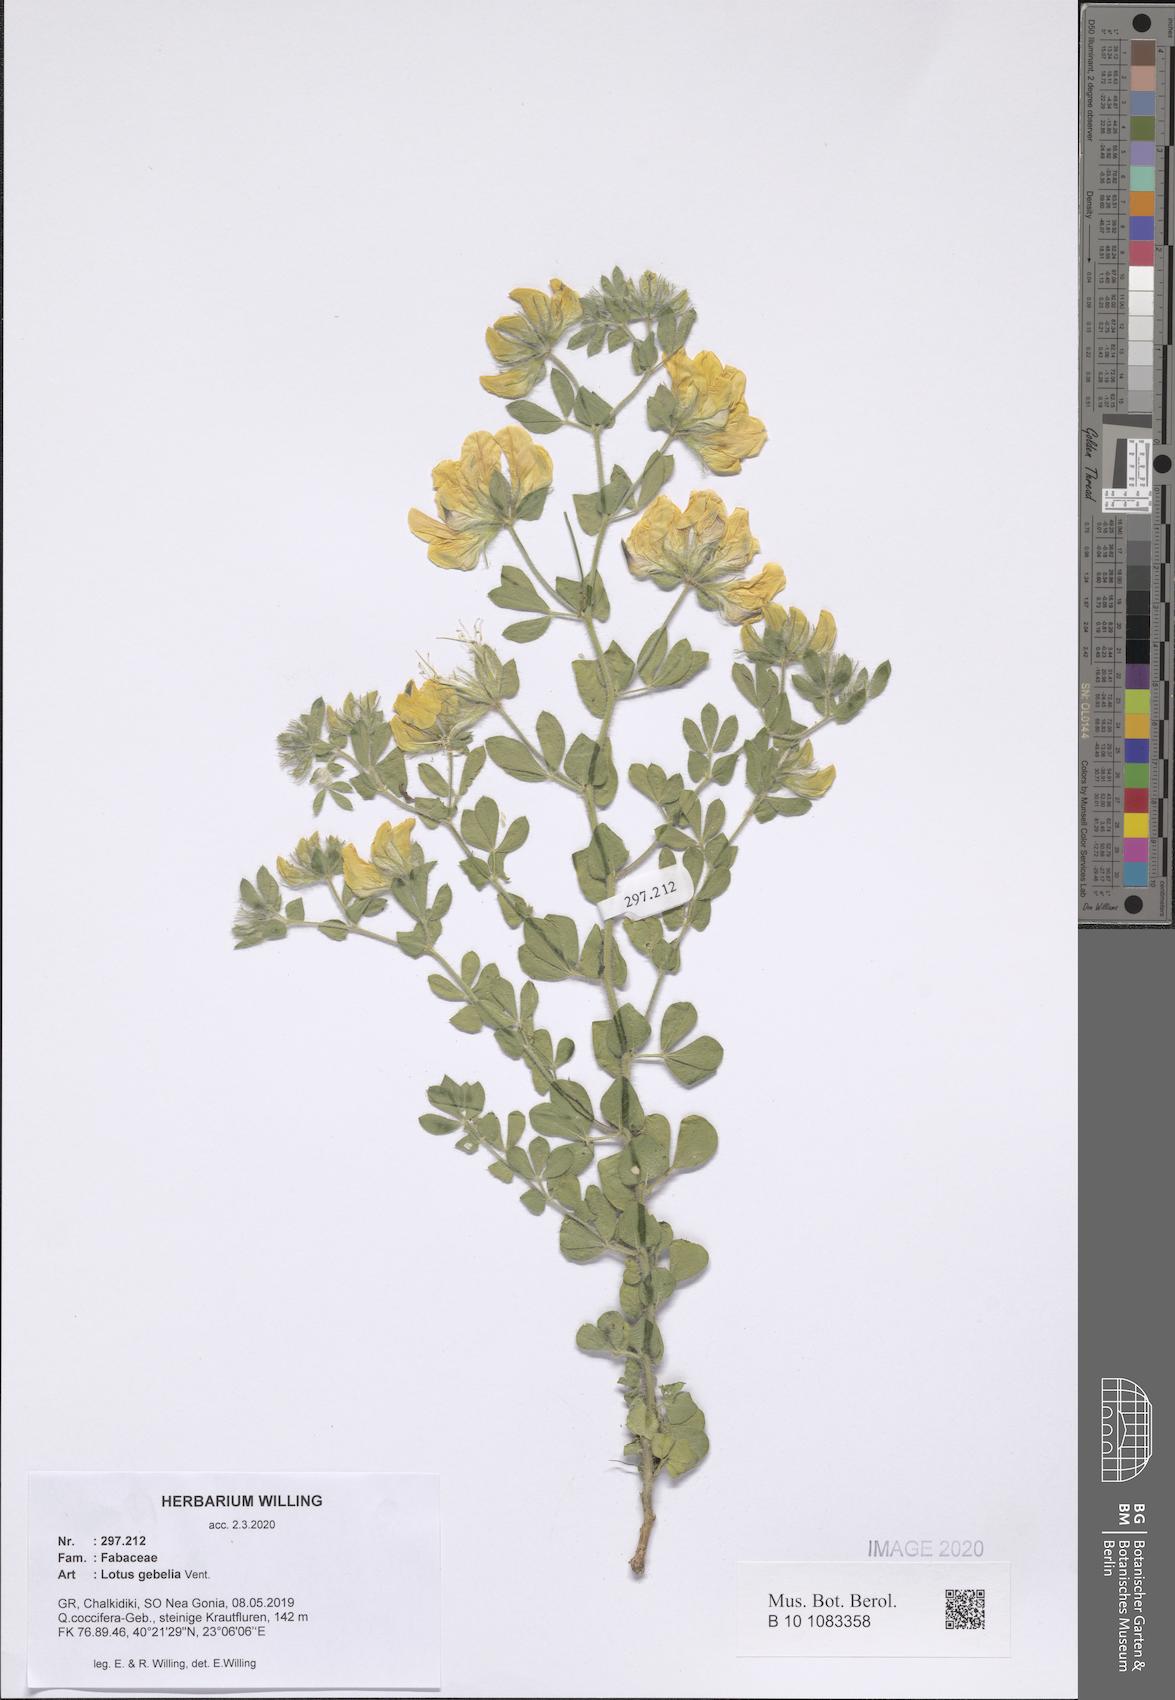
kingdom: Plantae
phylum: Tracheophyta
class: Magnoliopsida
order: Fabales
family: Fabaceae
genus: Lotus
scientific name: Lotus gebelia
